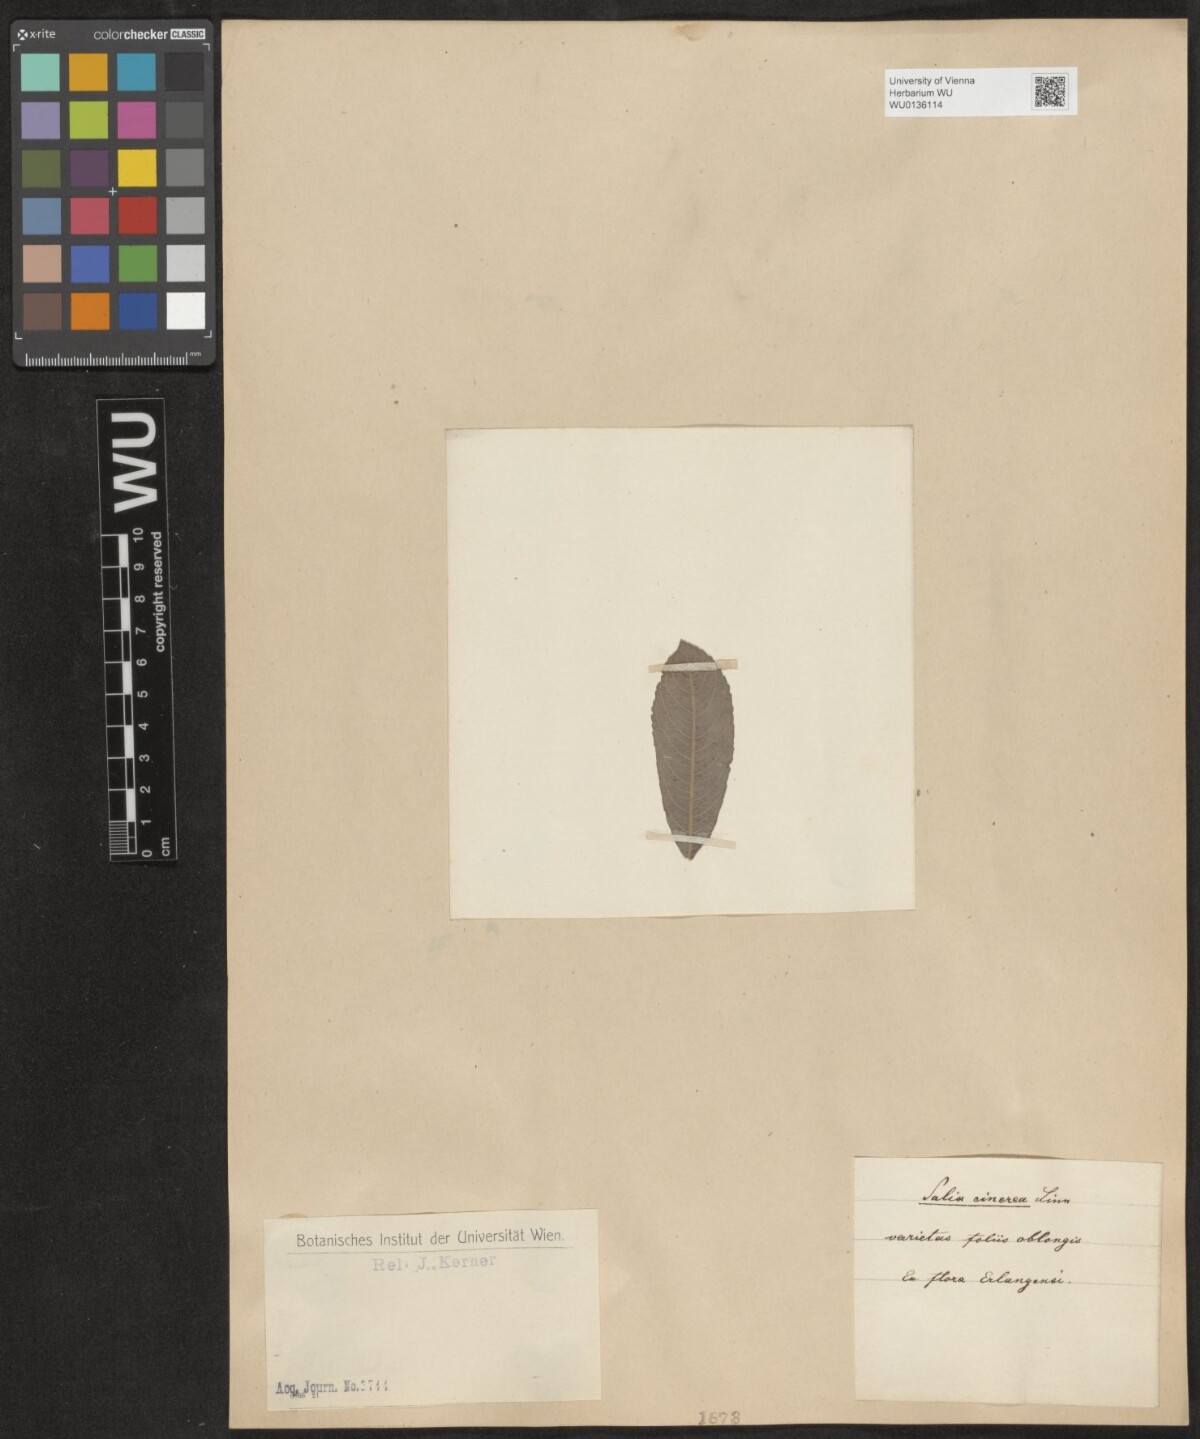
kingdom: Plantae
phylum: Tracheophyta
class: Magnoliopsida
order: Malpighiales
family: Salicaceae
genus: Salix
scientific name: Salix cinerea
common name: Common sallow
